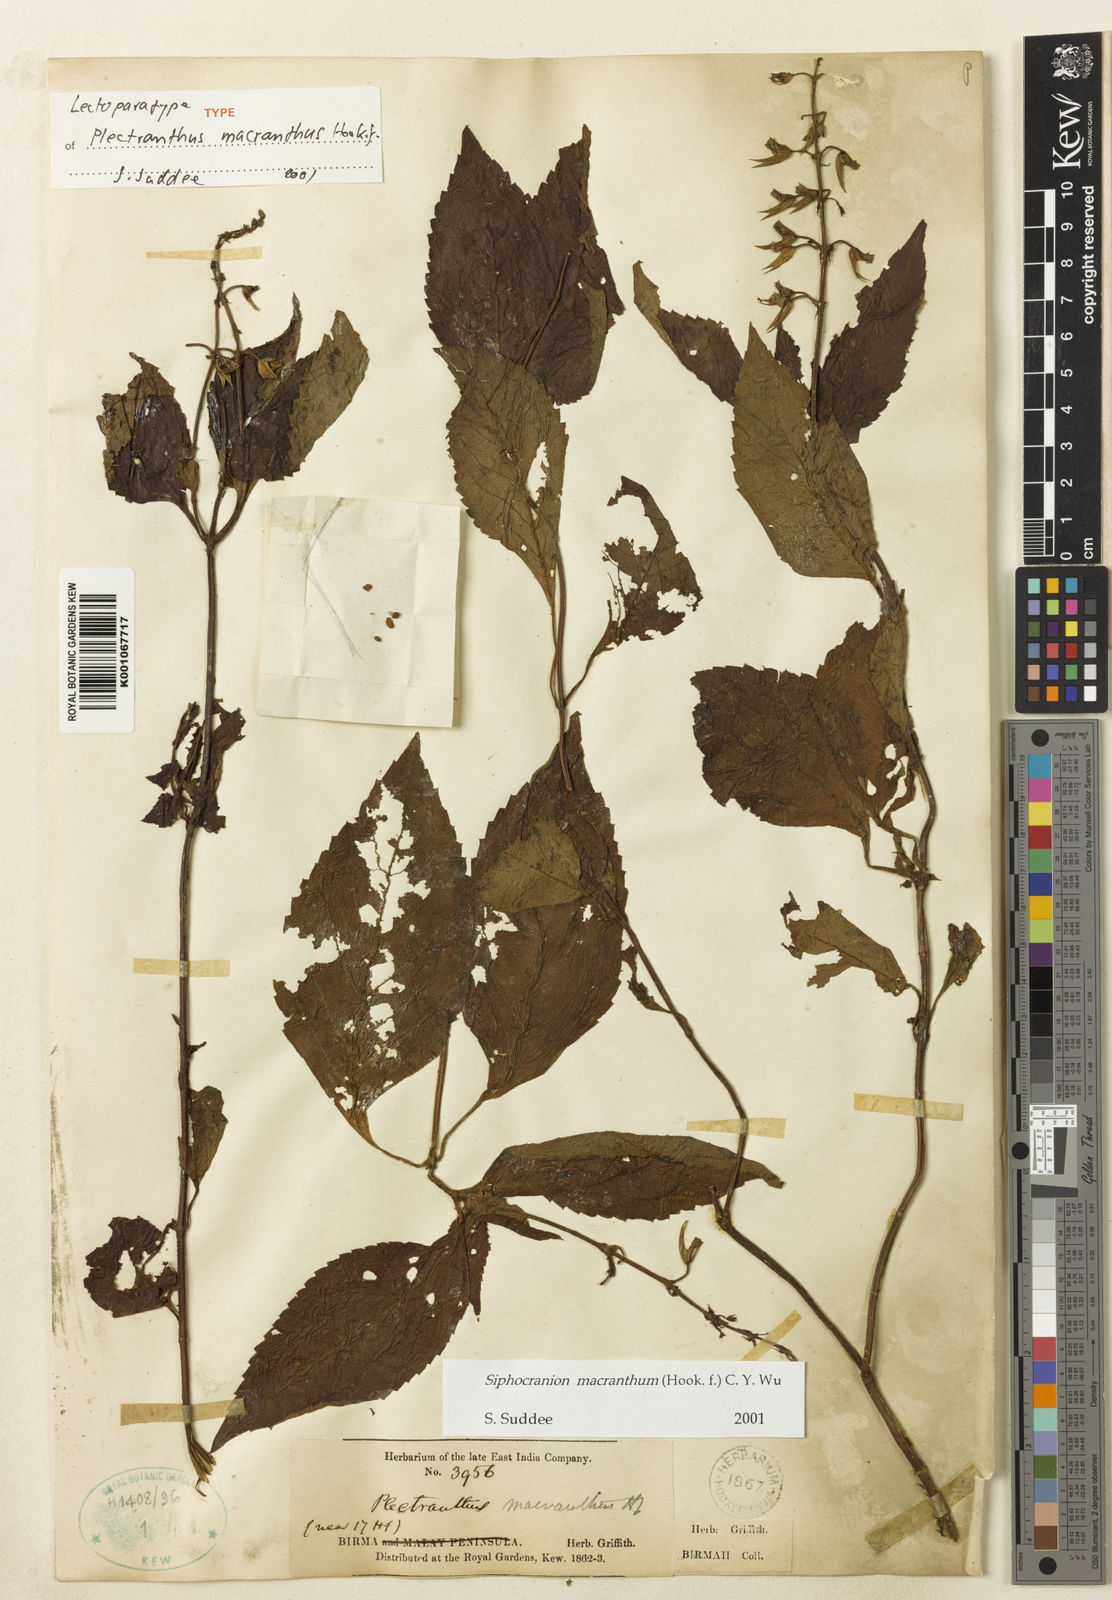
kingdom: Plantae
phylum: Tracheophyta
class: Magnoliopsida
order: Lamiales
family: Lamiaceae
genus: Siphocranion
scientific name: Siphocranion macranthum
